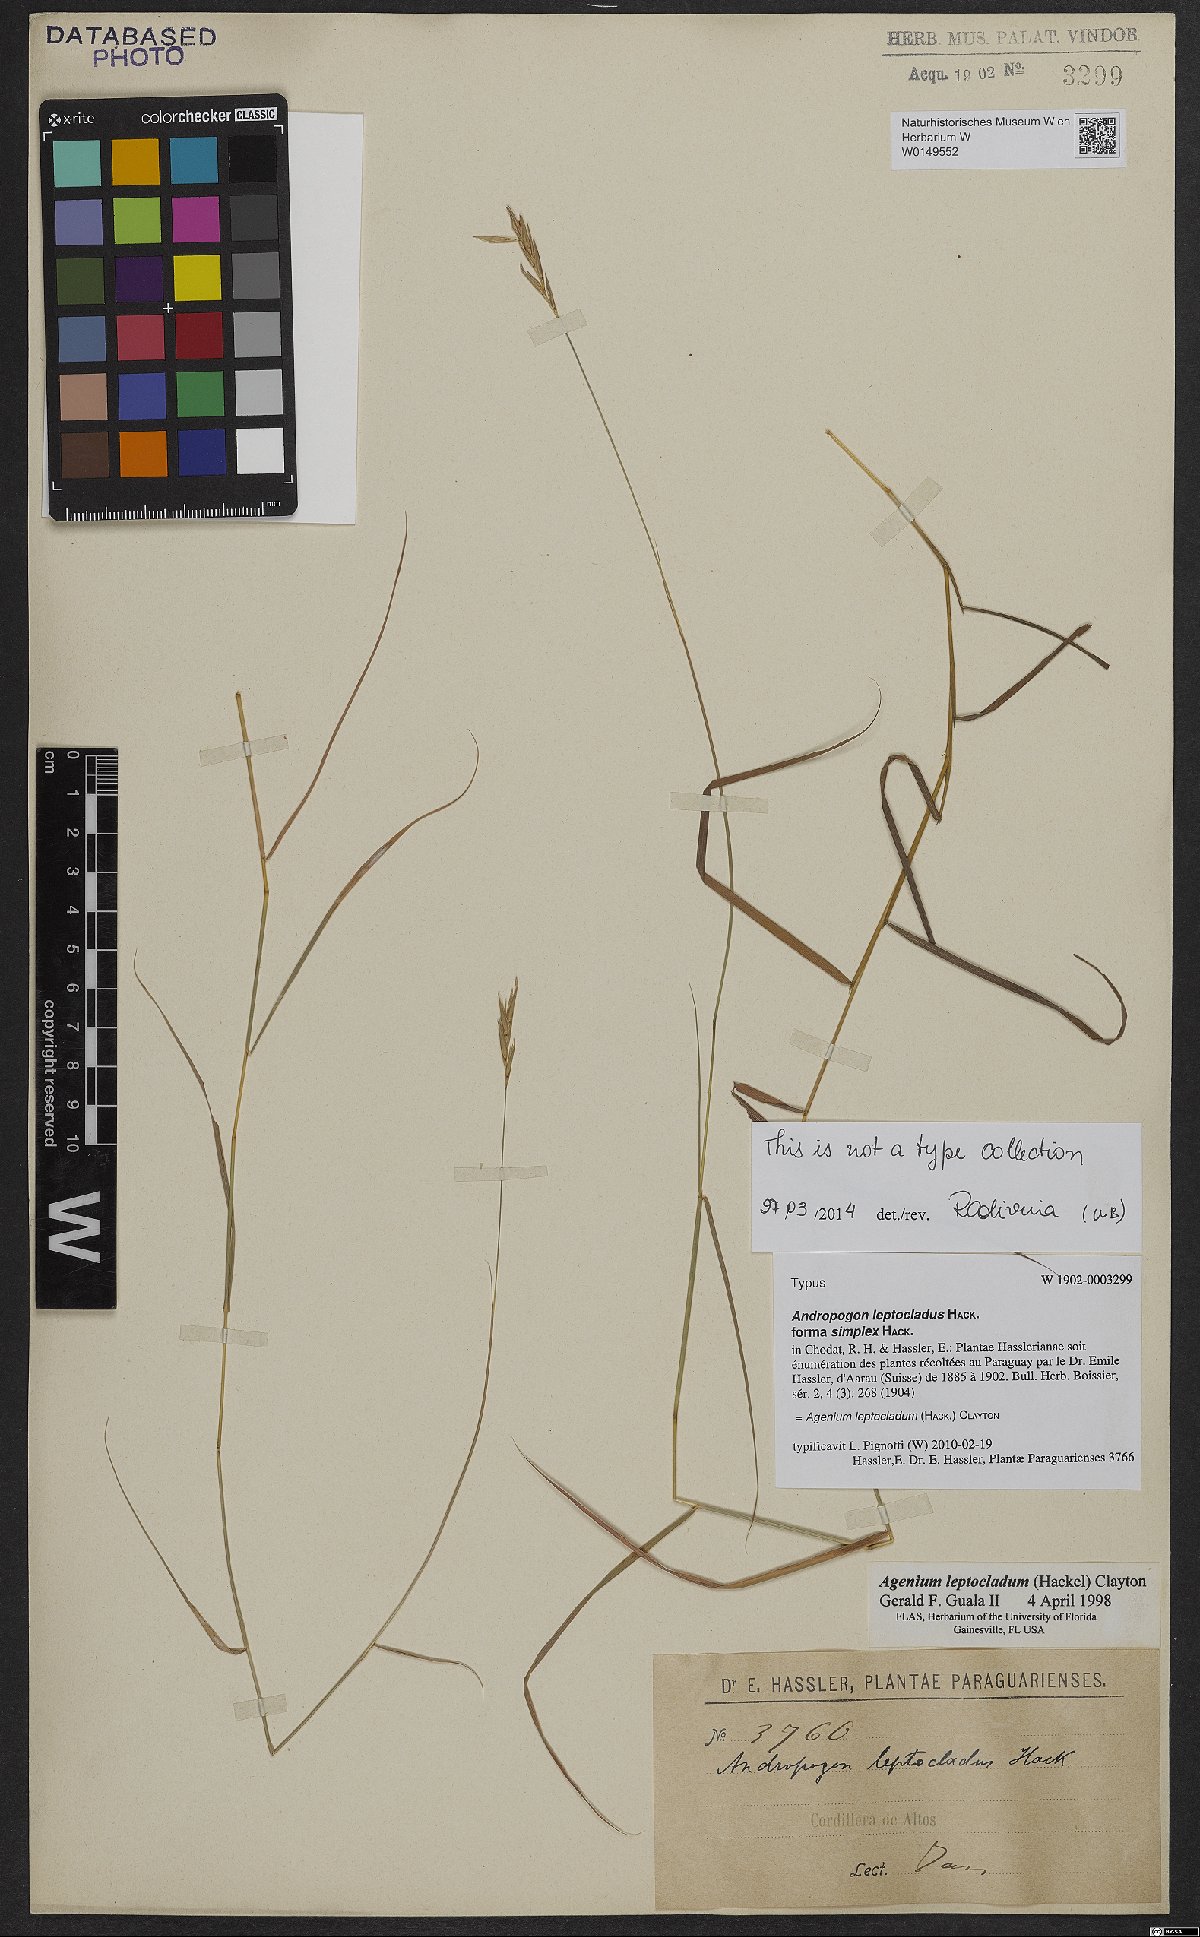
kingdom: Plantae
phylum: Tracheophyta
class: Liliopsida
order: Poales
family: Poaceae
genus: Agenium
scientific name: Agenium leptocladum
